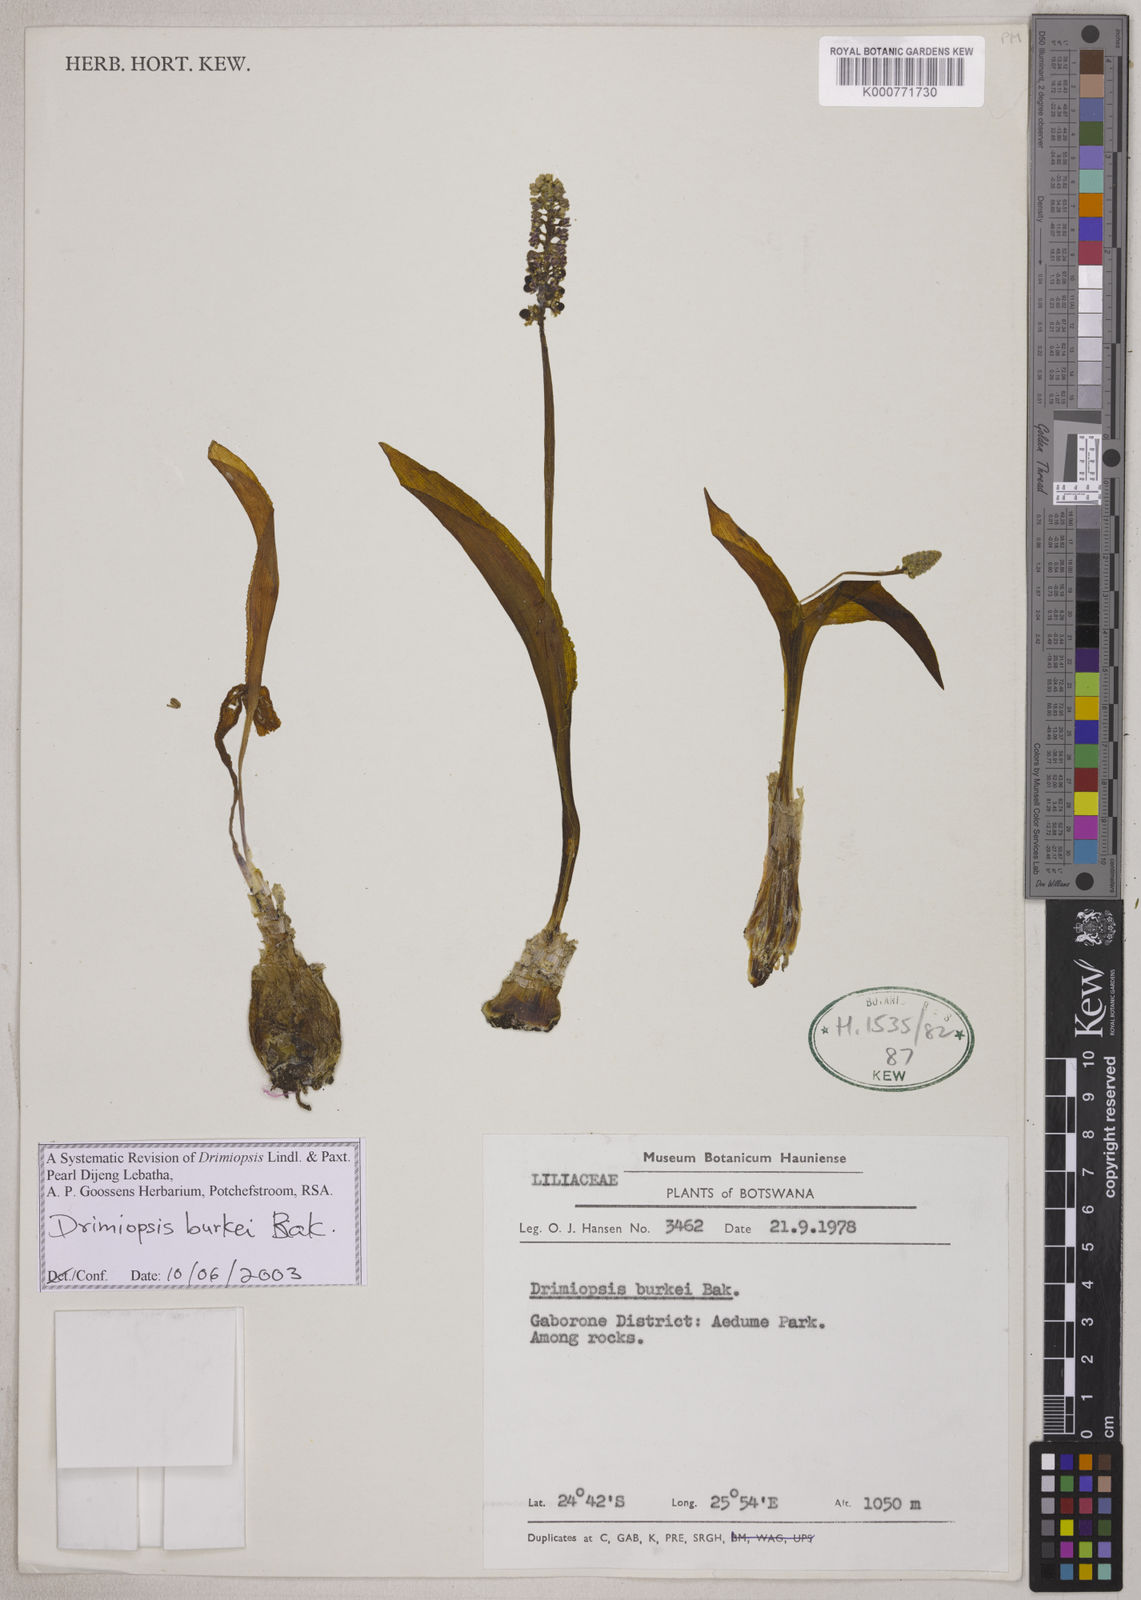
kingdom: Plantae
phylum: Tracheophyta
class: Liliopsida
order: Asparagales
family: Asparagaceae
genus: Drimiopsis
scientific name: Drimiopsis burkei
